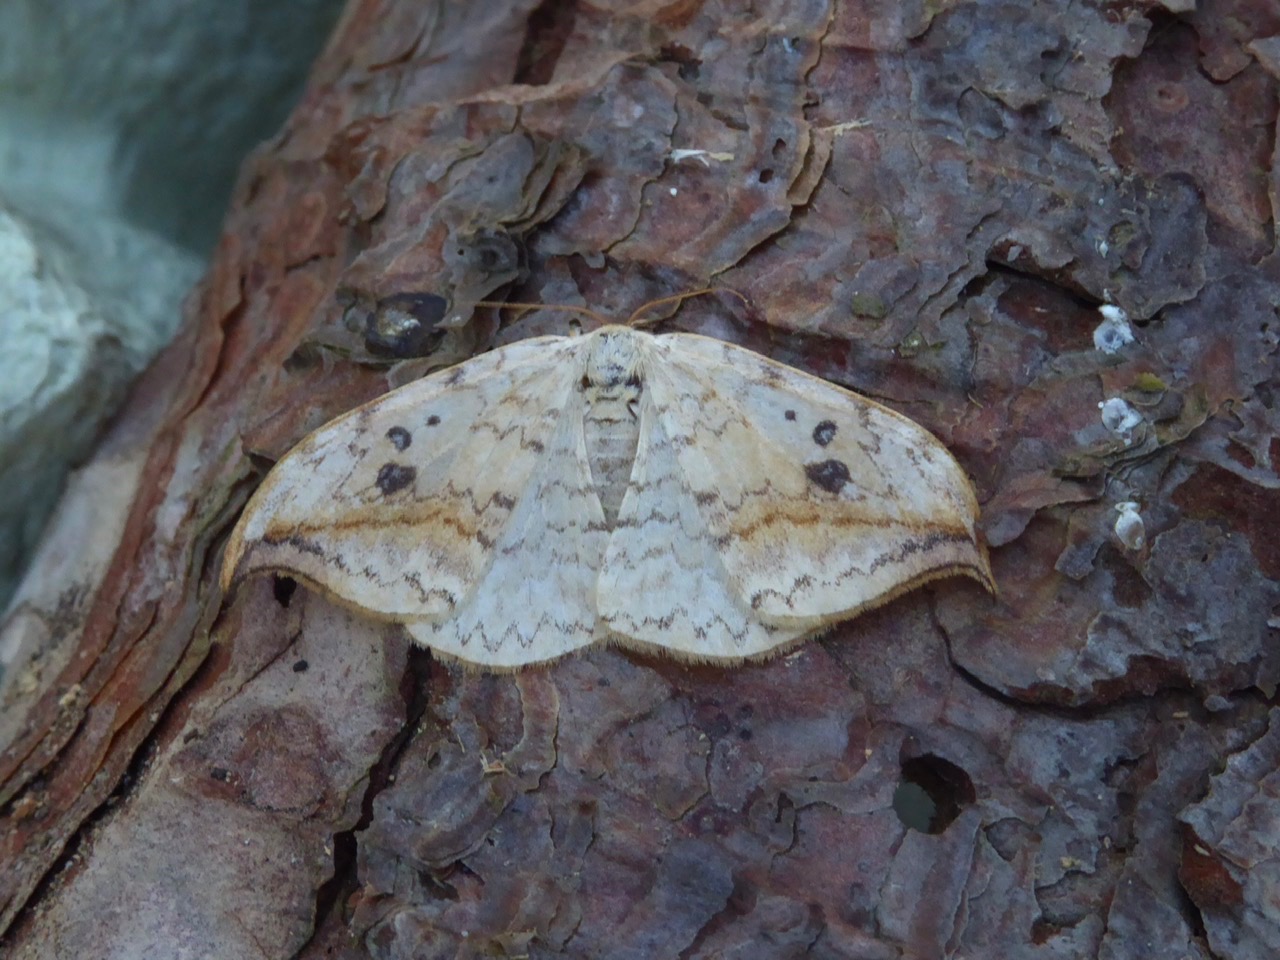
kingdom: Animalia
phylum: Arthropoda
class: Insecta
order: Lepidoptera
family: Drepanidae
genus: Drepana
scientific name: Drepana falcataria
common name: Birkeseglvinge
